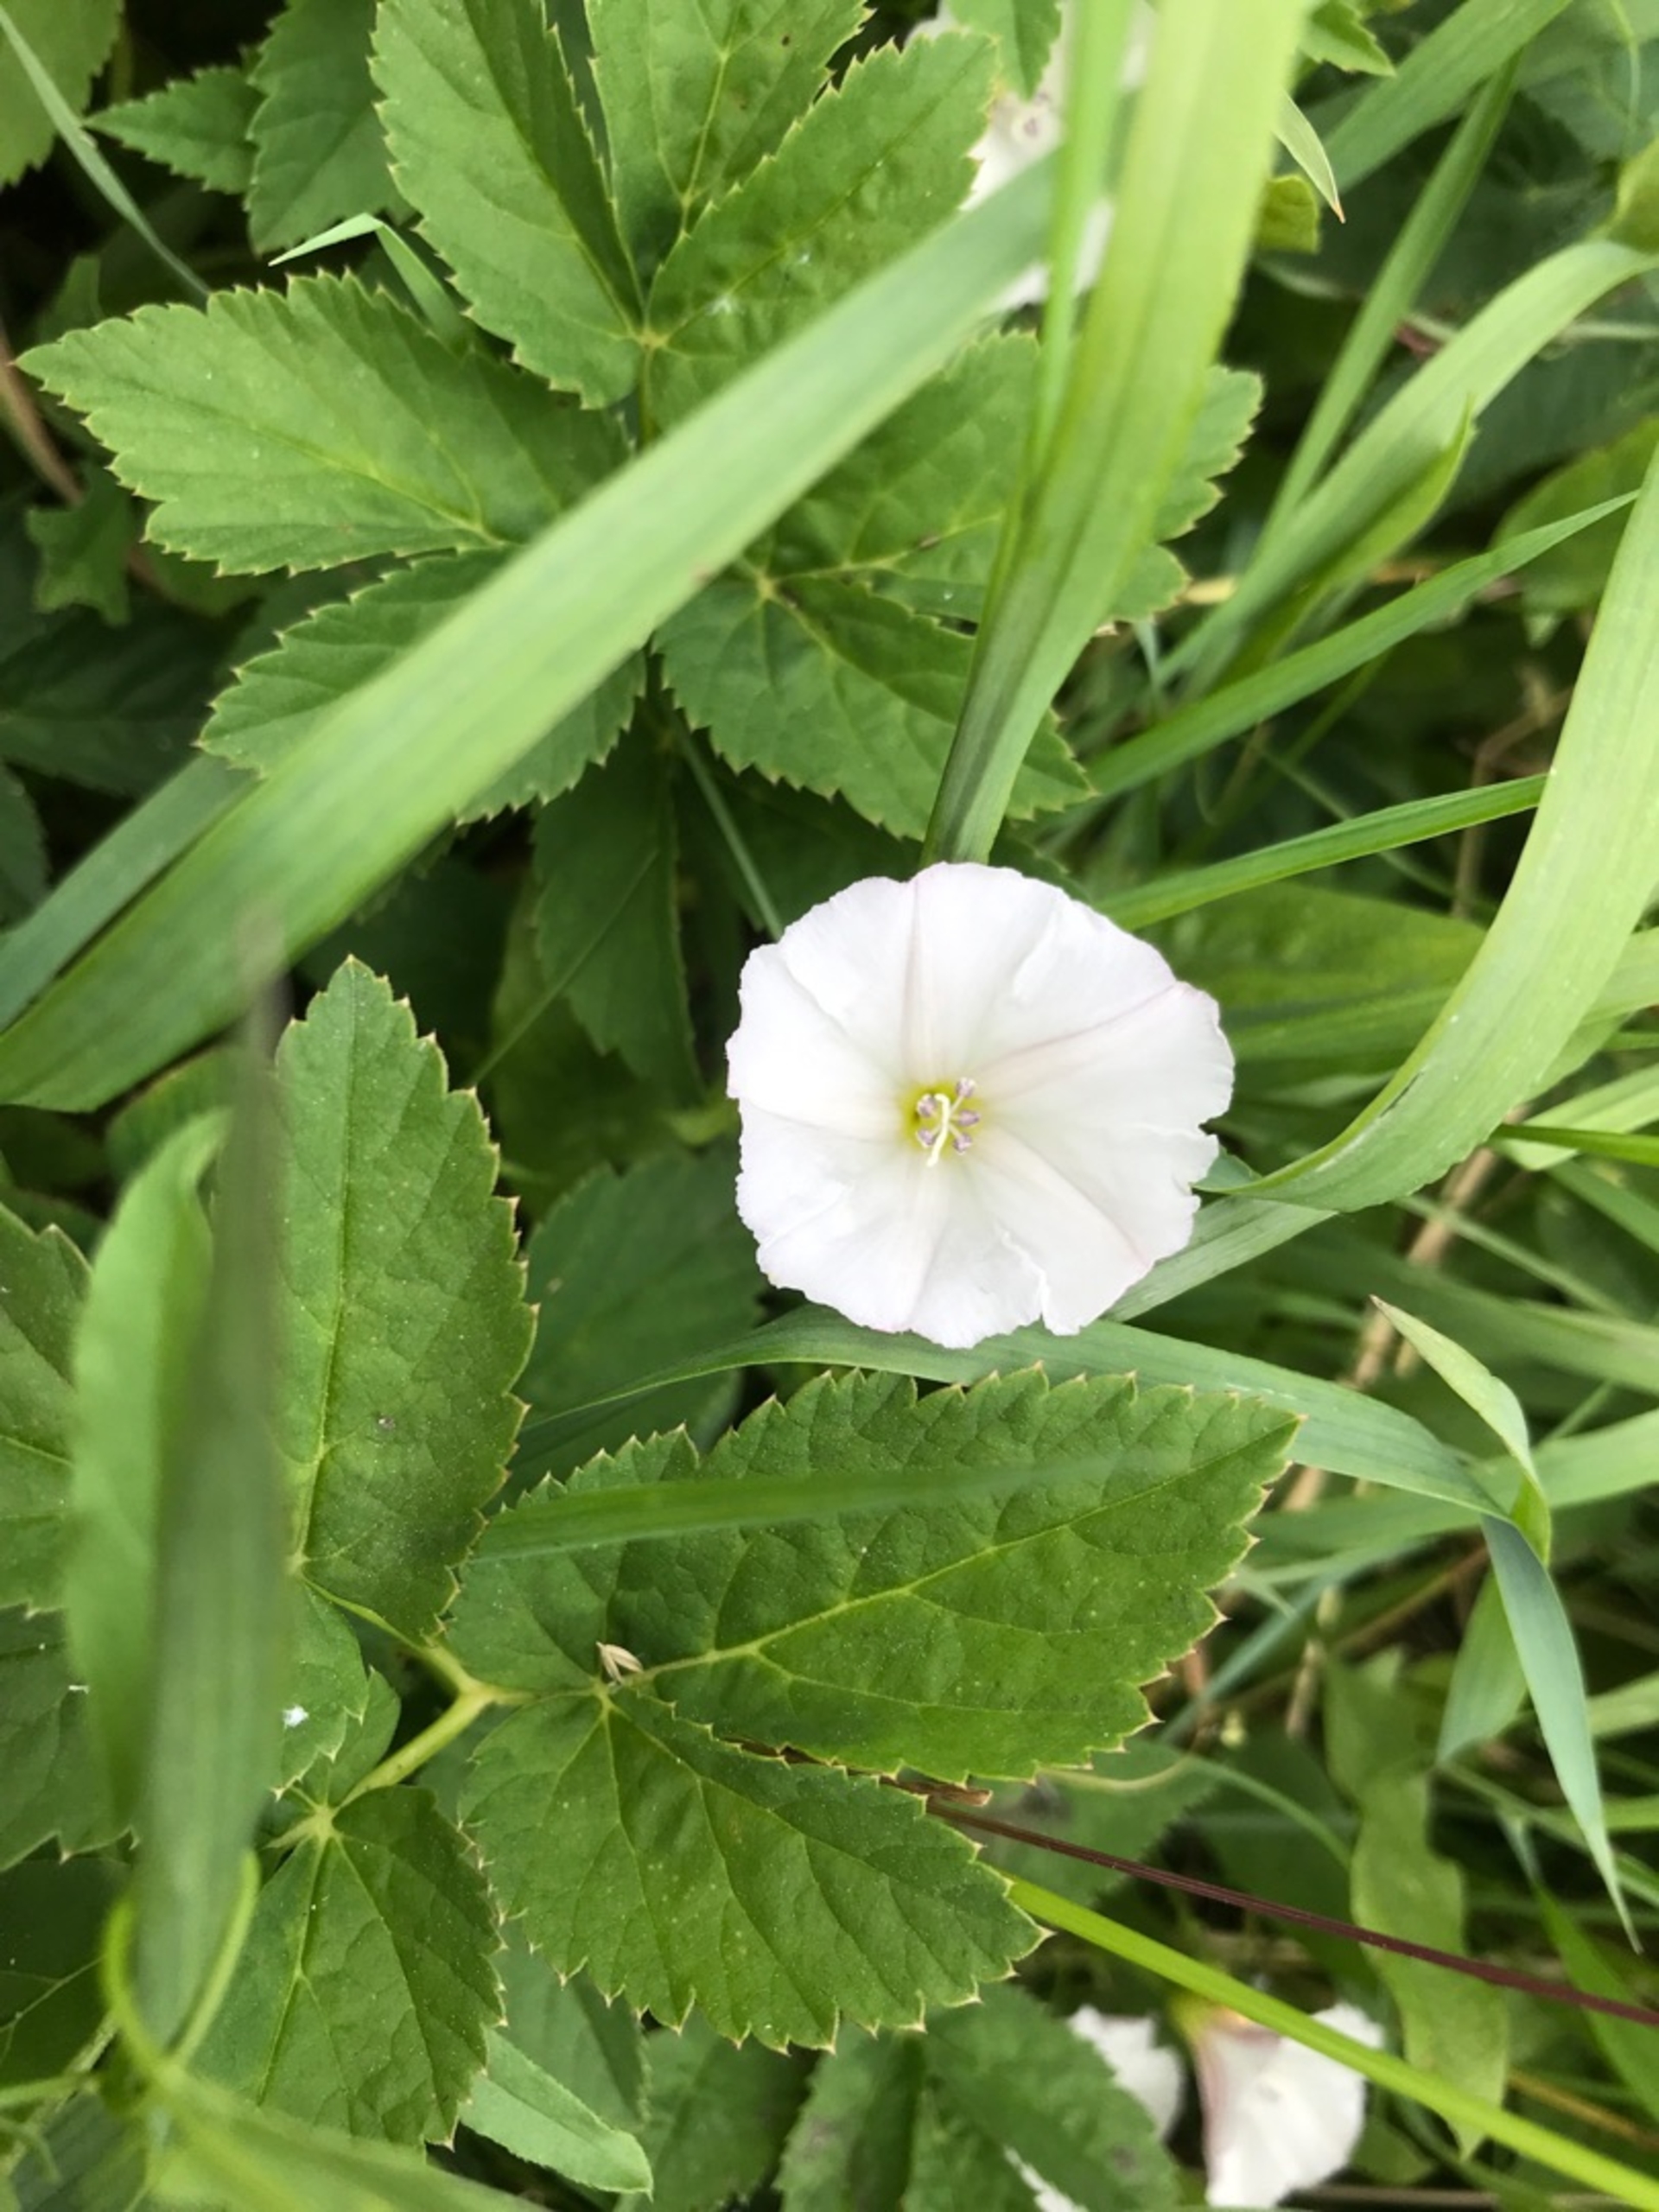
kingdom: Plantae
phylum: Tracheophyta
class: Magnoliopsida
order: Solanales
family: Convolvulaceae
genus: Convolvulus
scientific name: Convolvulus arvensis
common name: Ager-snerle
